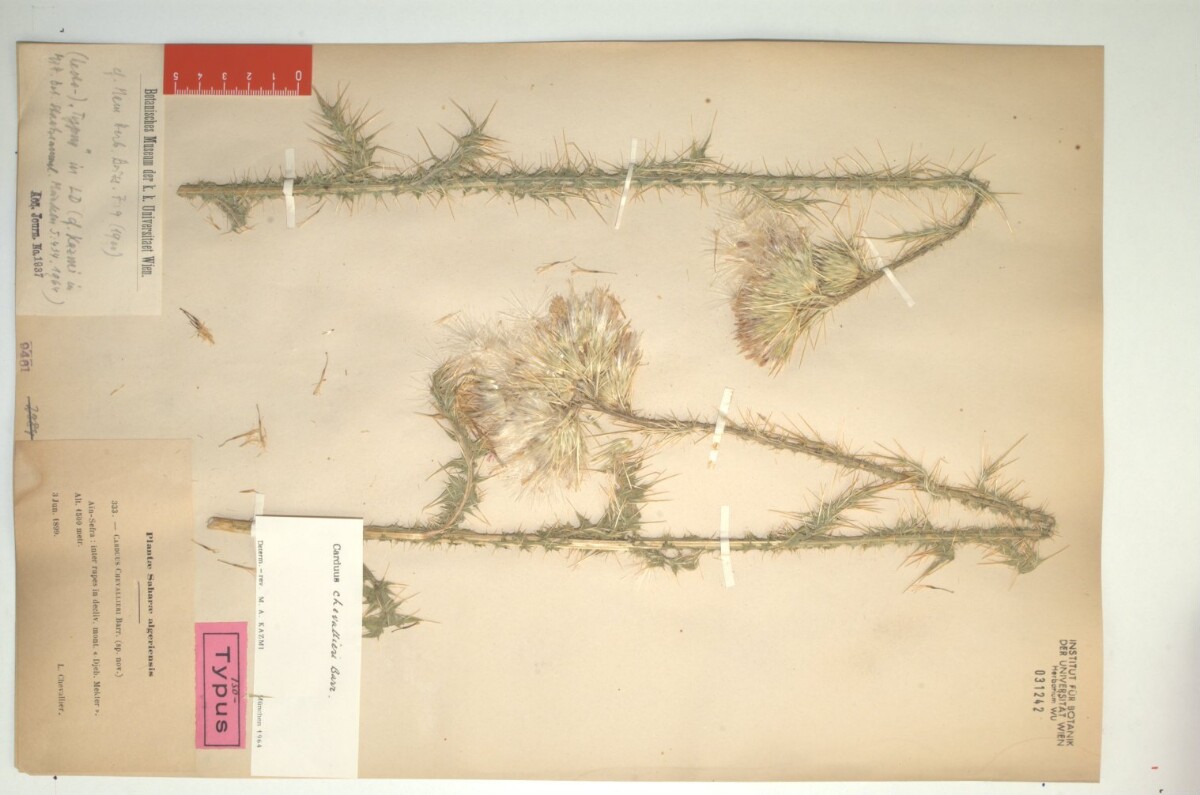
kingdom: Plantae
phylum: Tracheophyta
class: Magnoliopsida
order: Asterales
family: Asteraceae
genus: Carduus
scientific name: Carduus chevallieri
